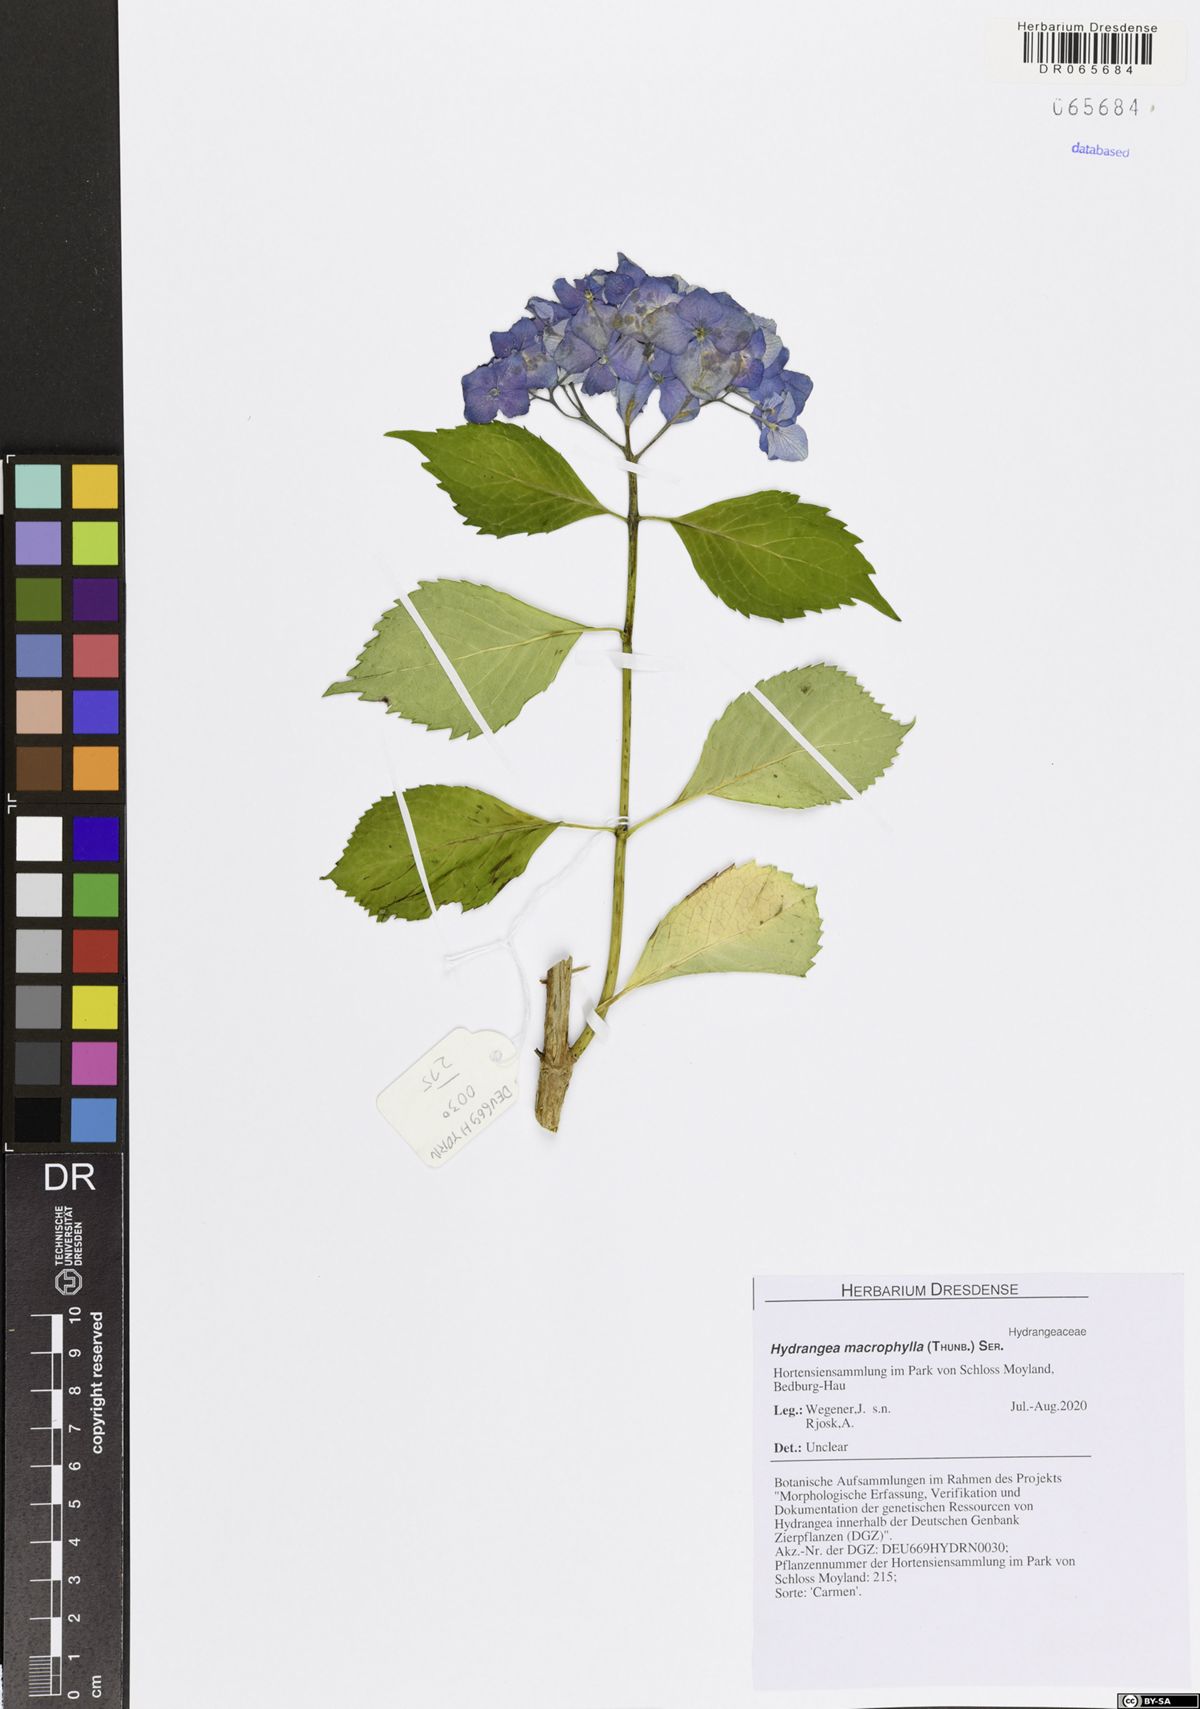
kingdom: Plantae
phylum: Tracheophyta
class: Magnoliopsida
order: Cornales
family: Hydrangeaceae
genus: Hydrangea
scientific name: Hydrangea macrophylla
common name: Hydrangea
